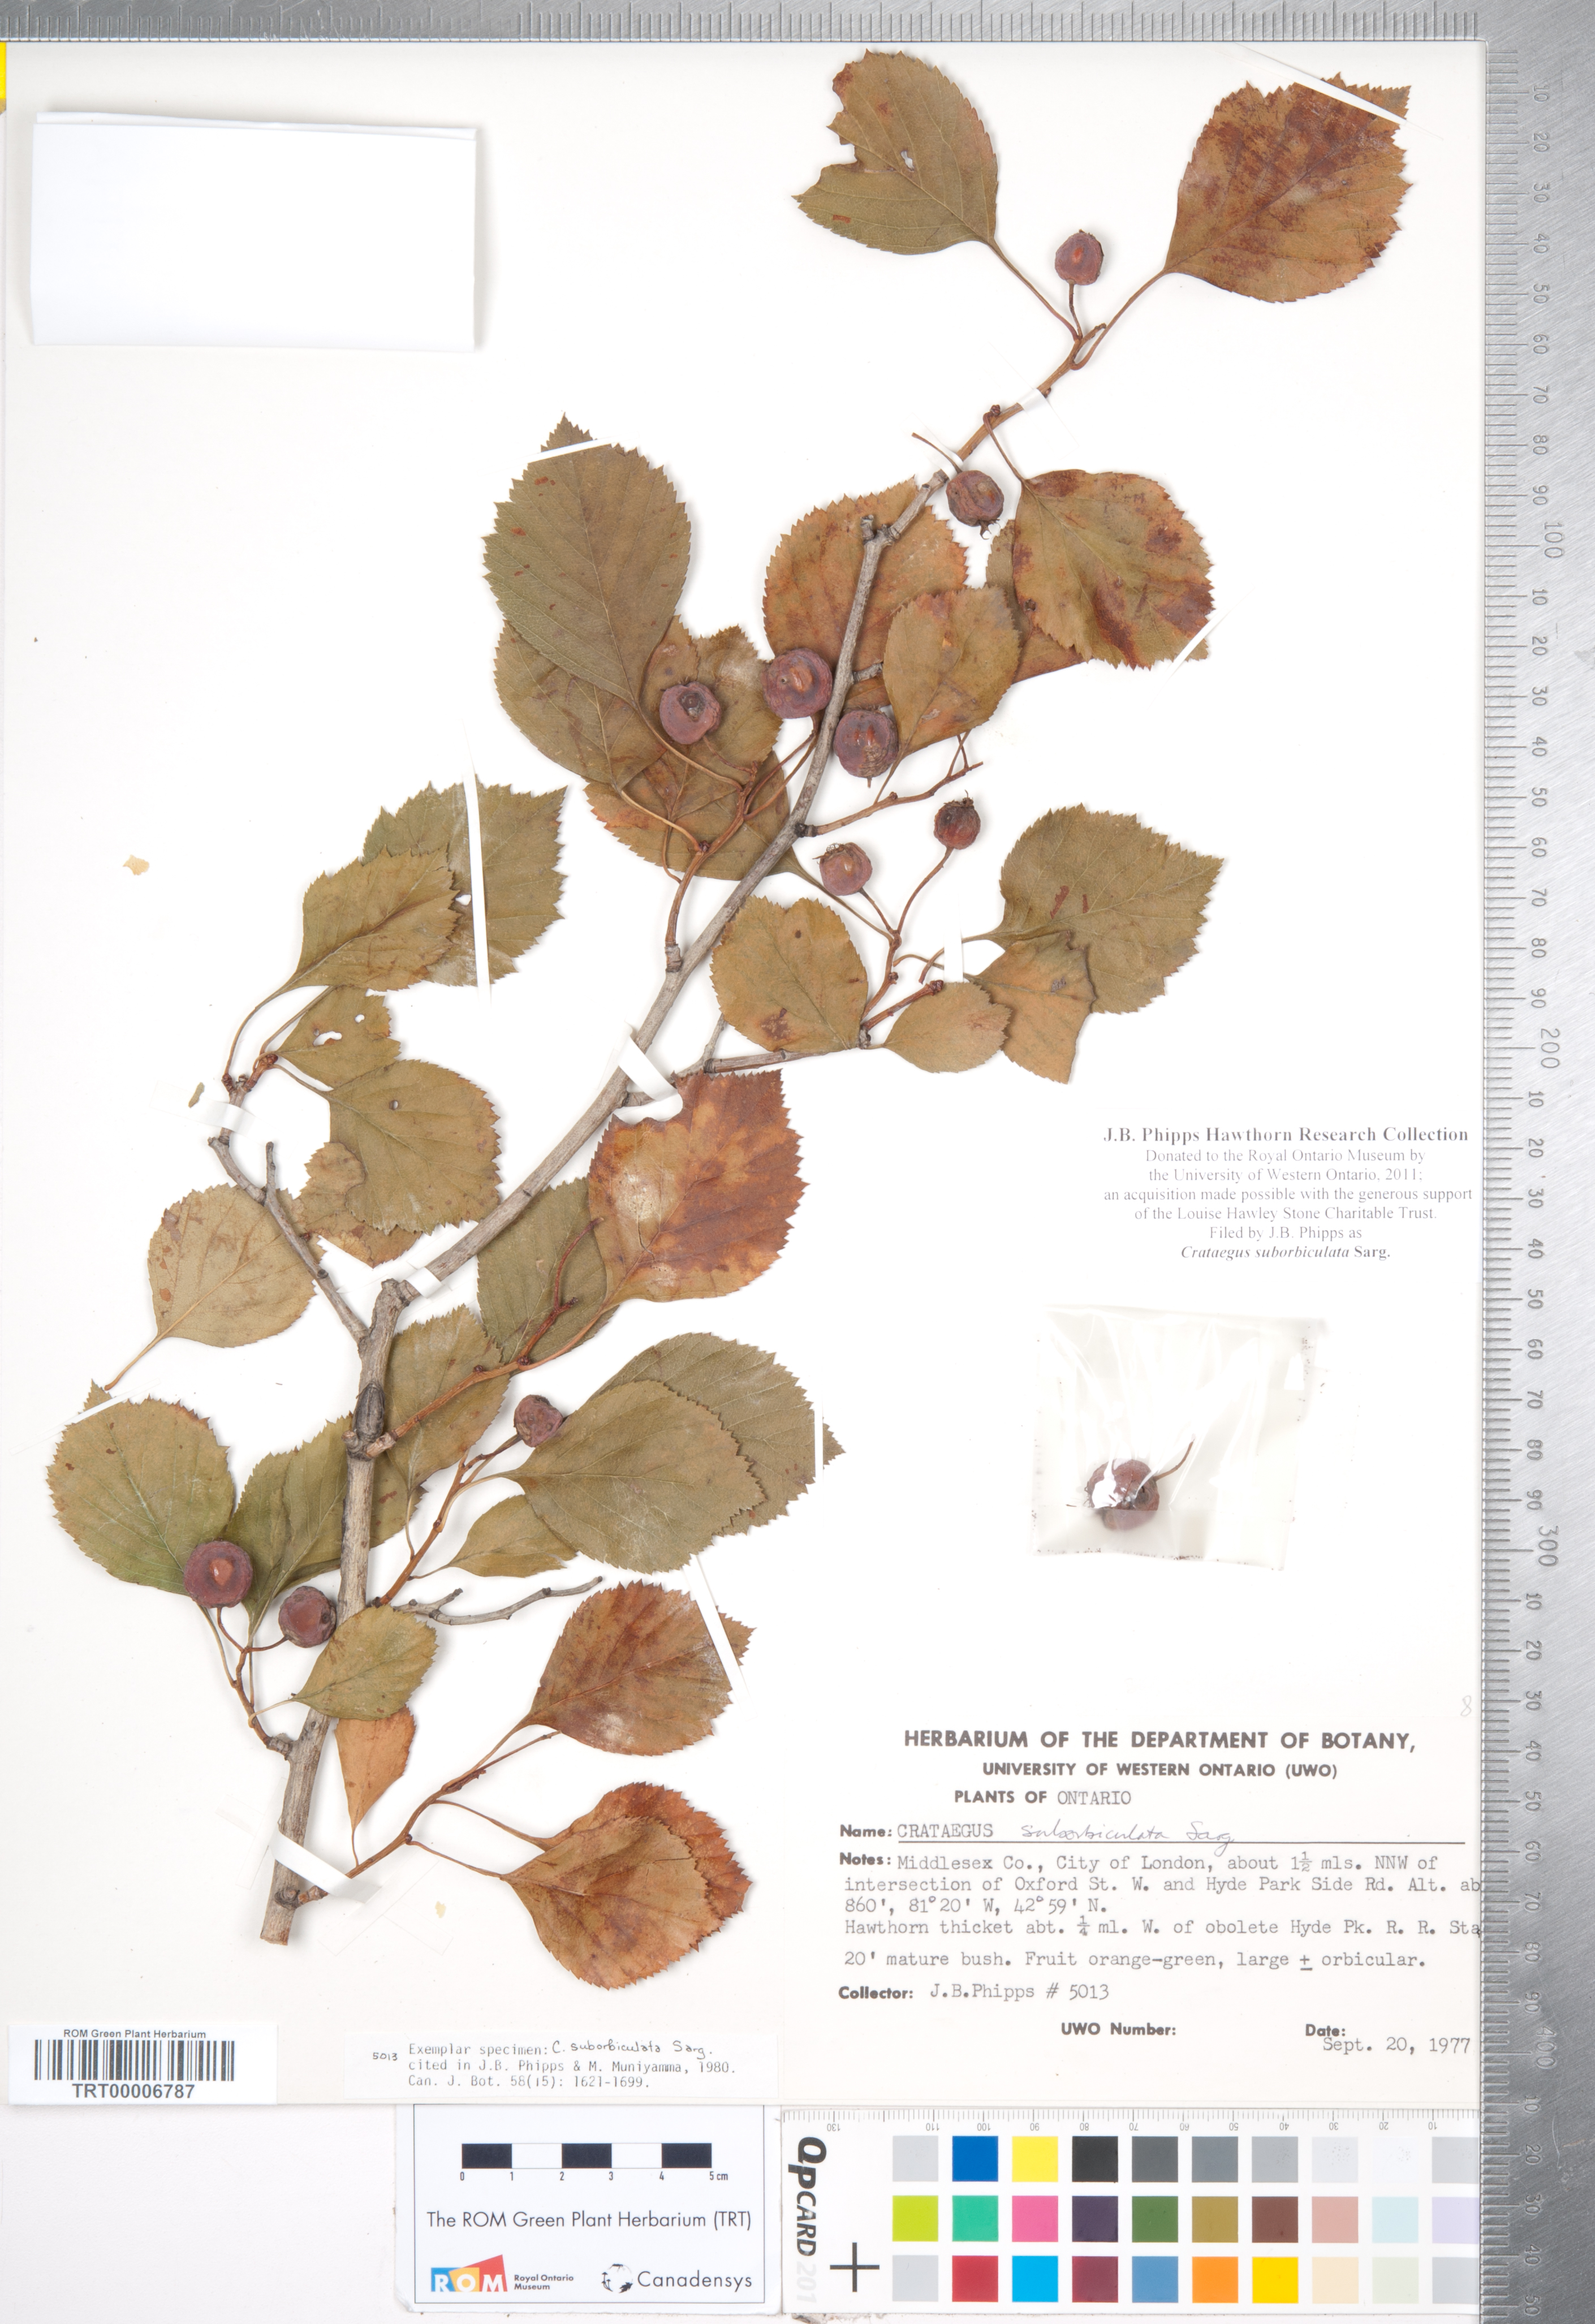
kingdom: Plantae
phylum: Tracheophyta
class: Magnoliopsida
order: Rosales
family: Rosaceae
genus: Crataegus
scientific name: Crataegus suborbiculata
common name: Caughnawaga hawthorn
